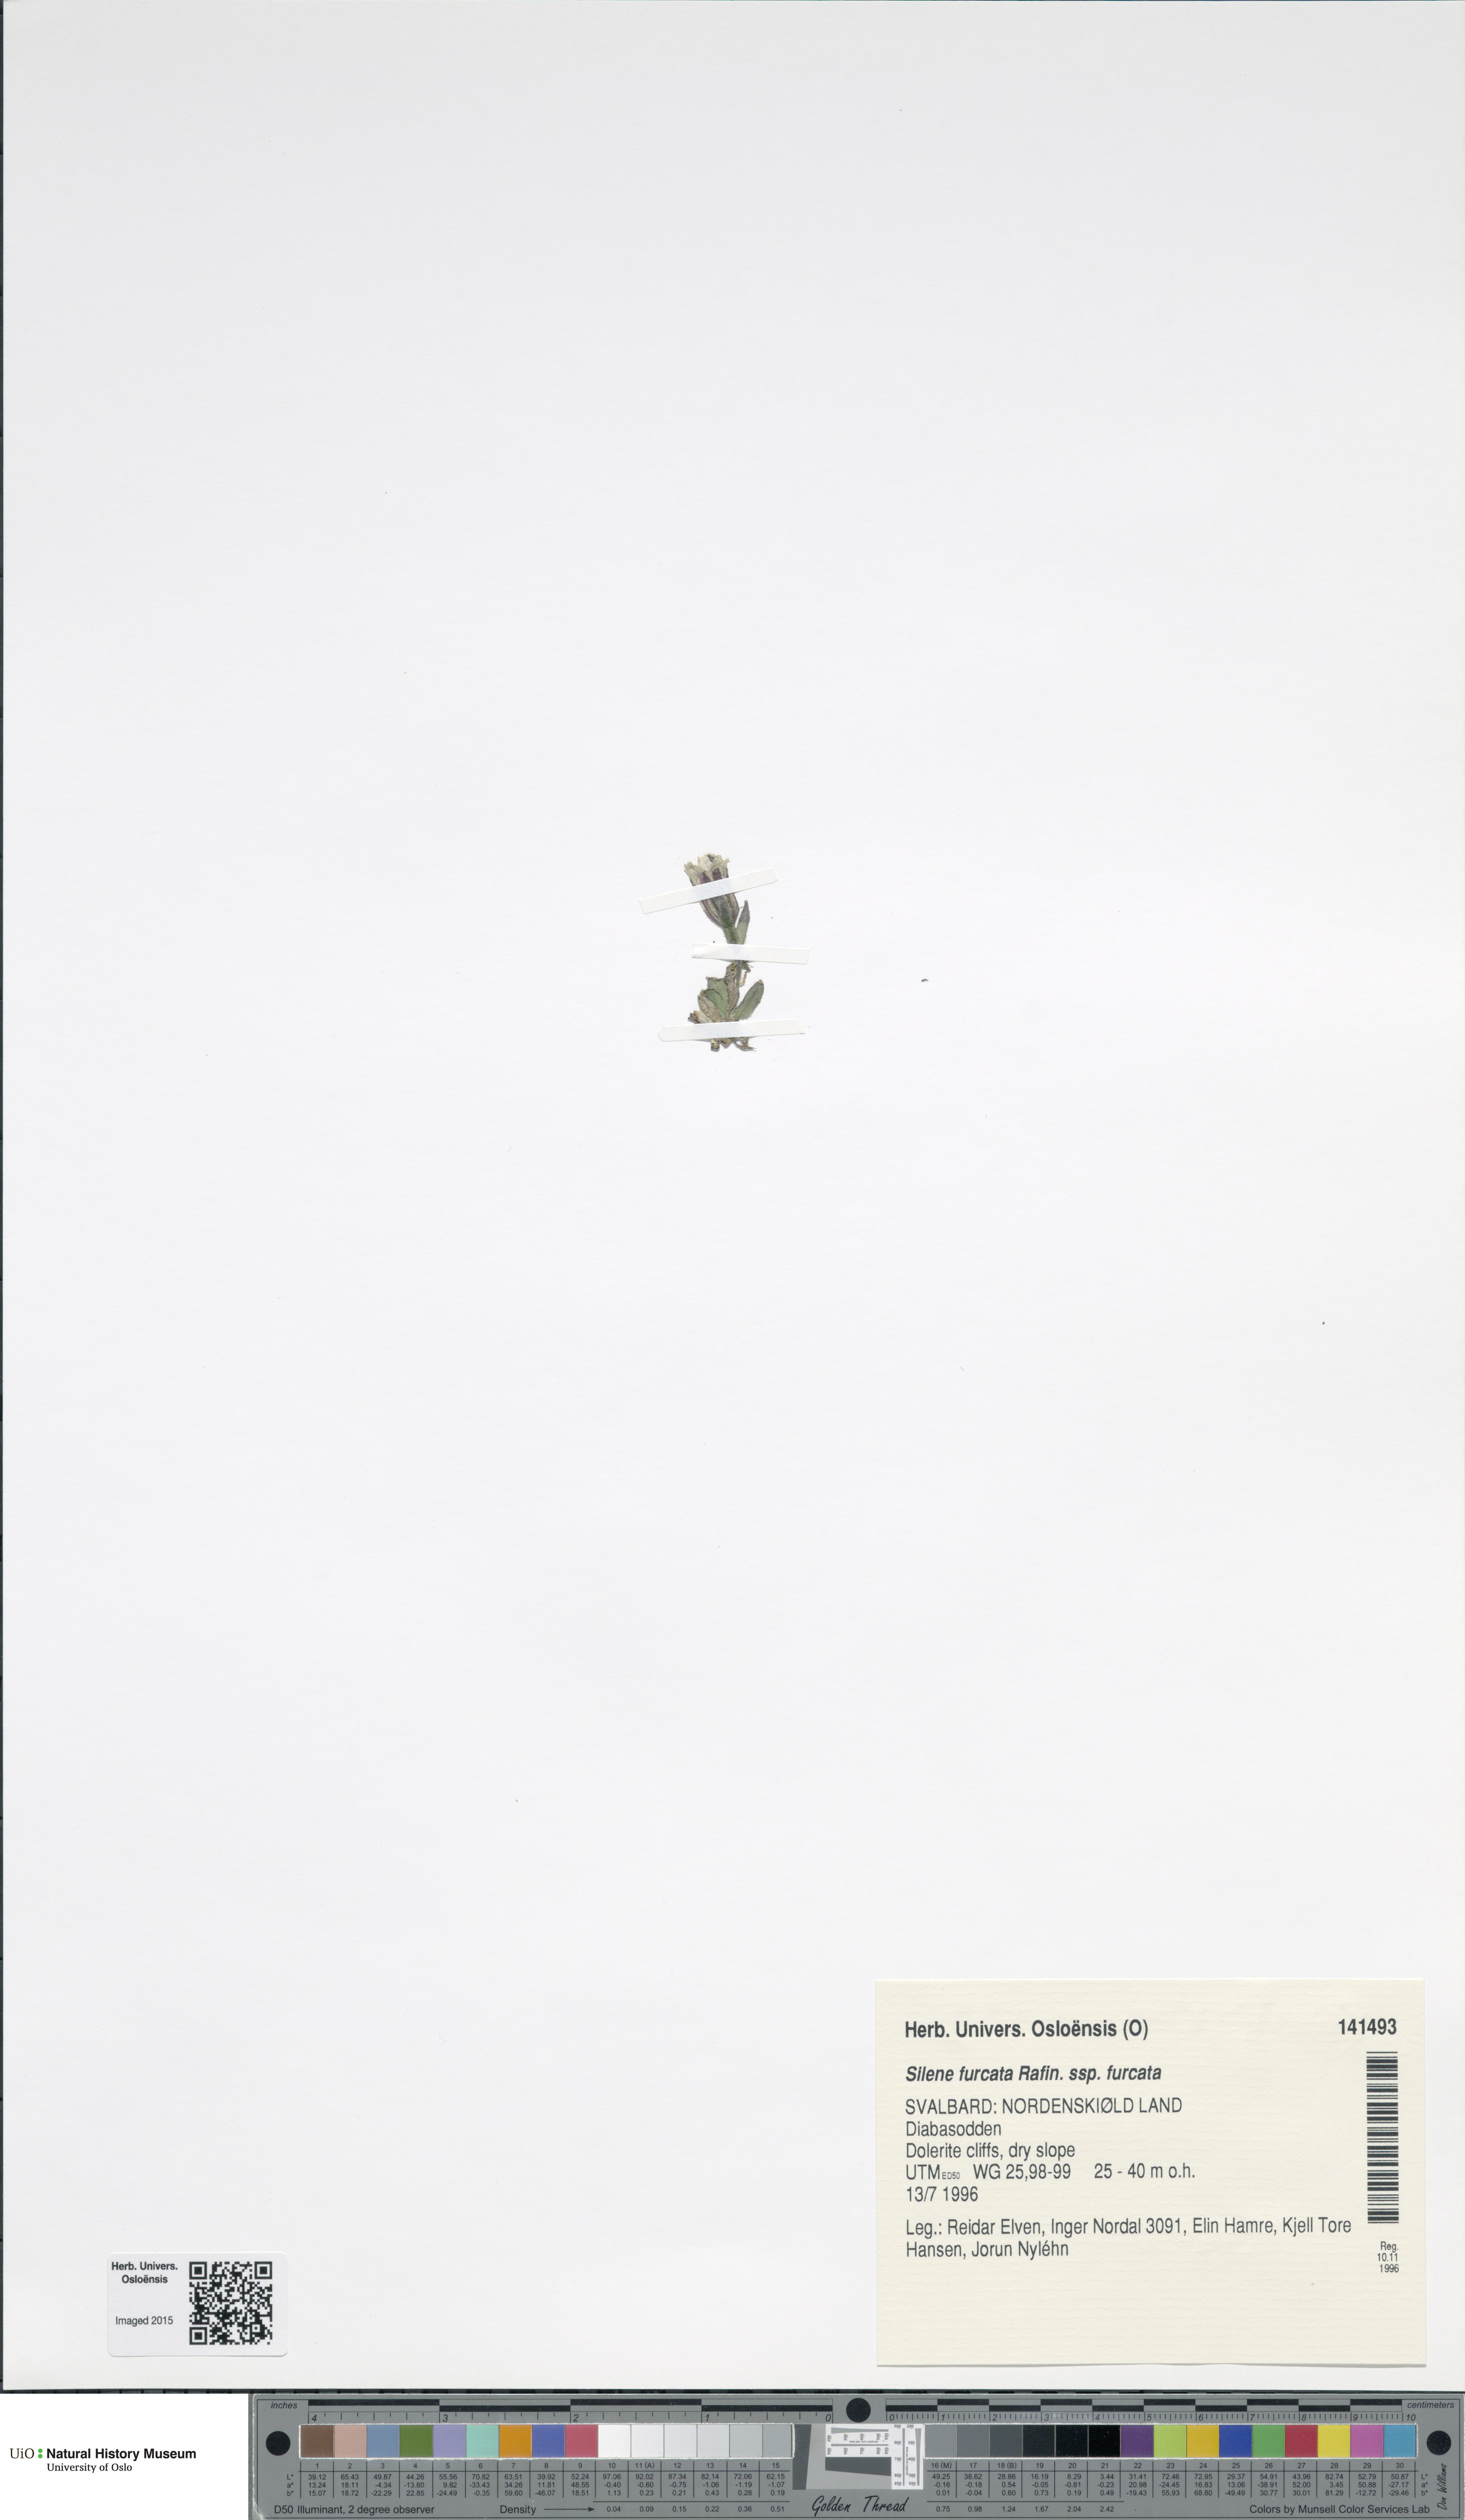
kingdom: Plantae
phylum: Tracheophyta
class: Magnoliopsida
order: Caryophyllales
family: Caryophyllaceae
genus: Silene
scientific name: Silene involucrata
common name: Greater arctic campion
